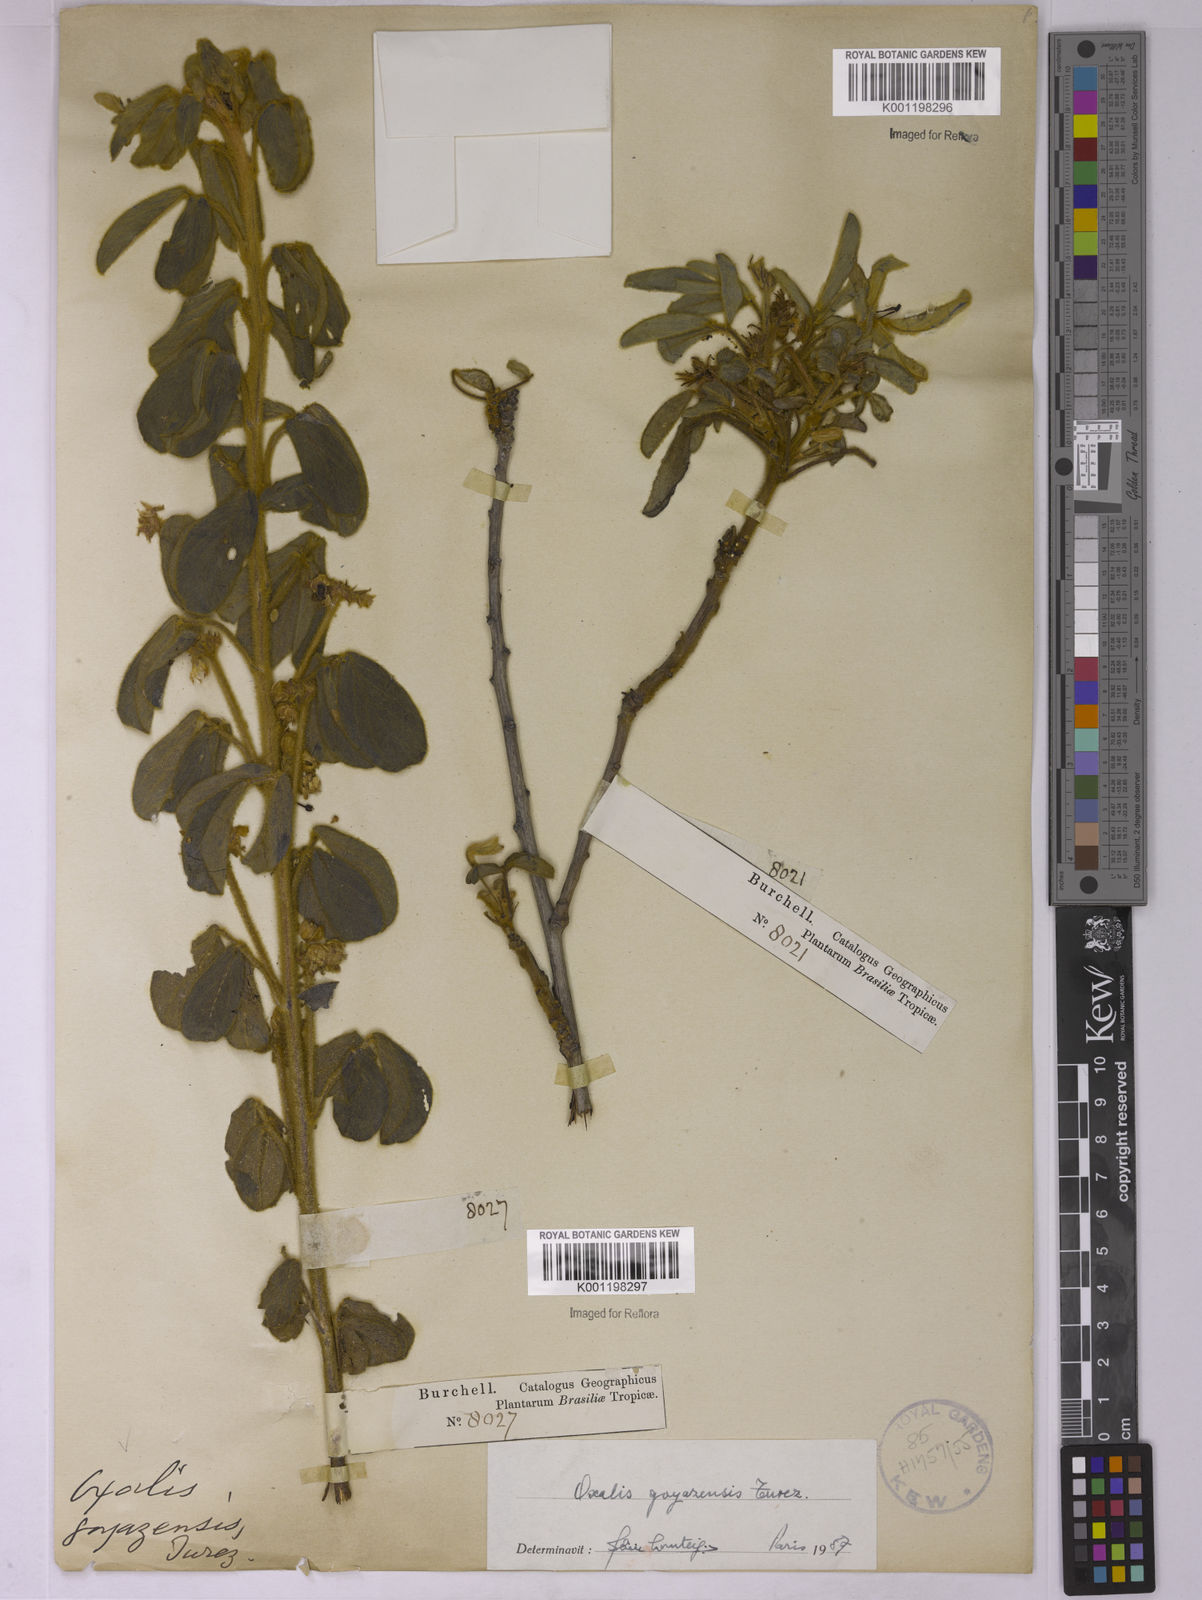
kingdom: Plantae
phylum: Tracheophyta
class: Magnoliopsida
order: Oxalidales
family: Oxalidaceae
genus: Oxalis
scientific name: Oxalis goyazensis
